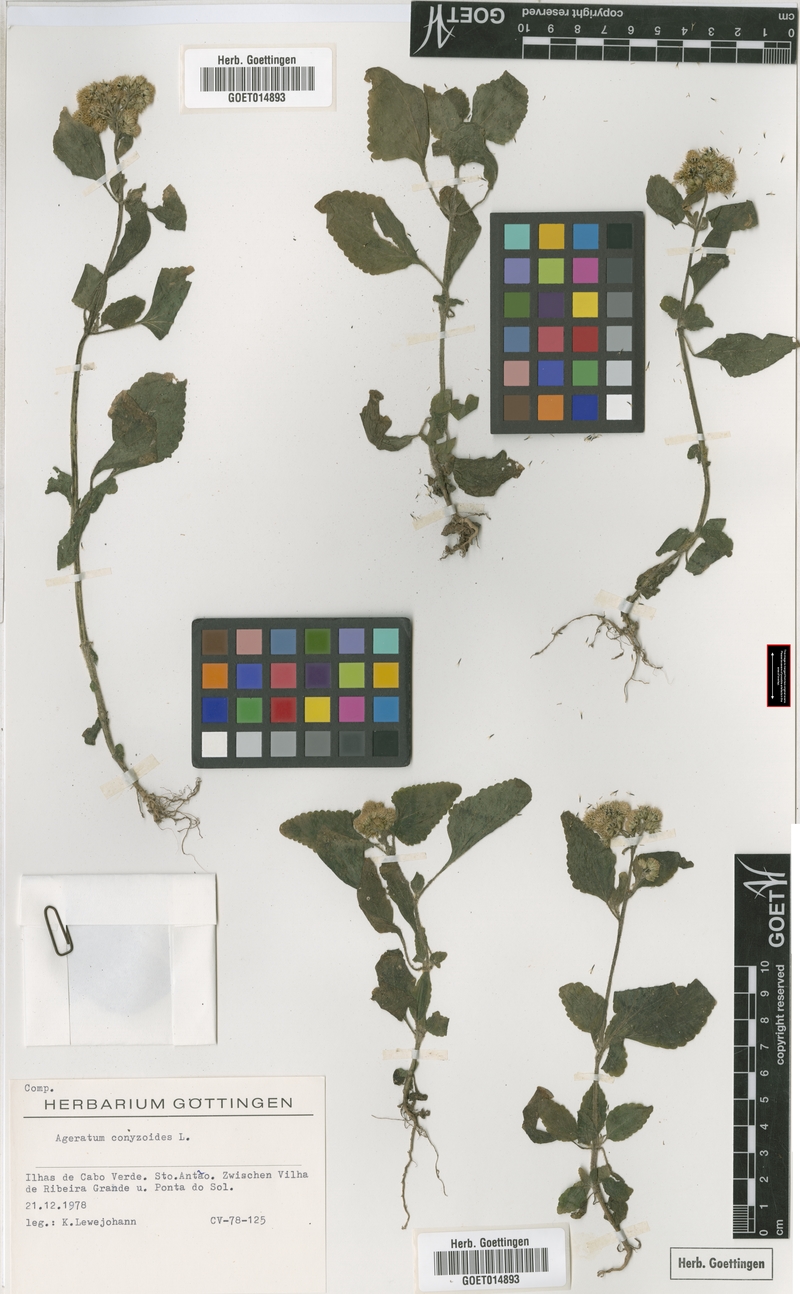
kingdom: Plantae
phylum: Tracheophyta
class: Magnoliopsida
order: Asterales
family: Asteraceae
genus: Ageratum
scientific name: Ageratum conyzoides
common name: Tropical whiteweed
